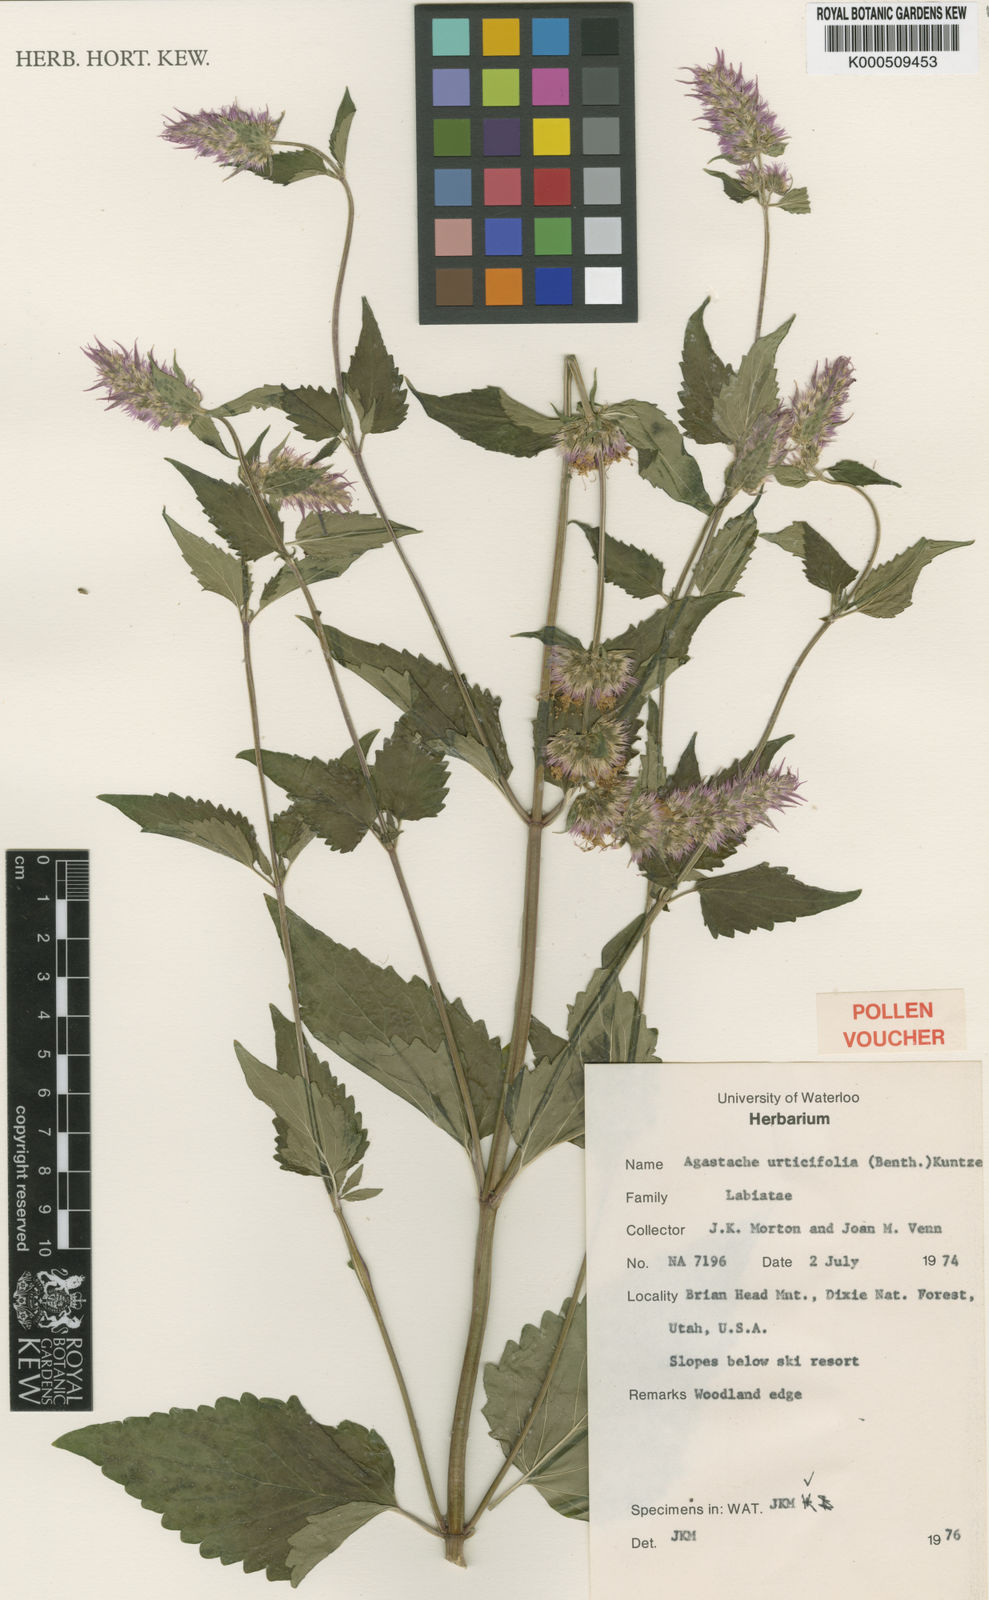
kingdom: Plantae
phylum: Tracheophyta
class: Magnoliopsida
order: Lamiales
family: Lamiaceae
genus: Agastache
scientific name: Agastache urticifolia
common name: Horsemint giant hyssop
